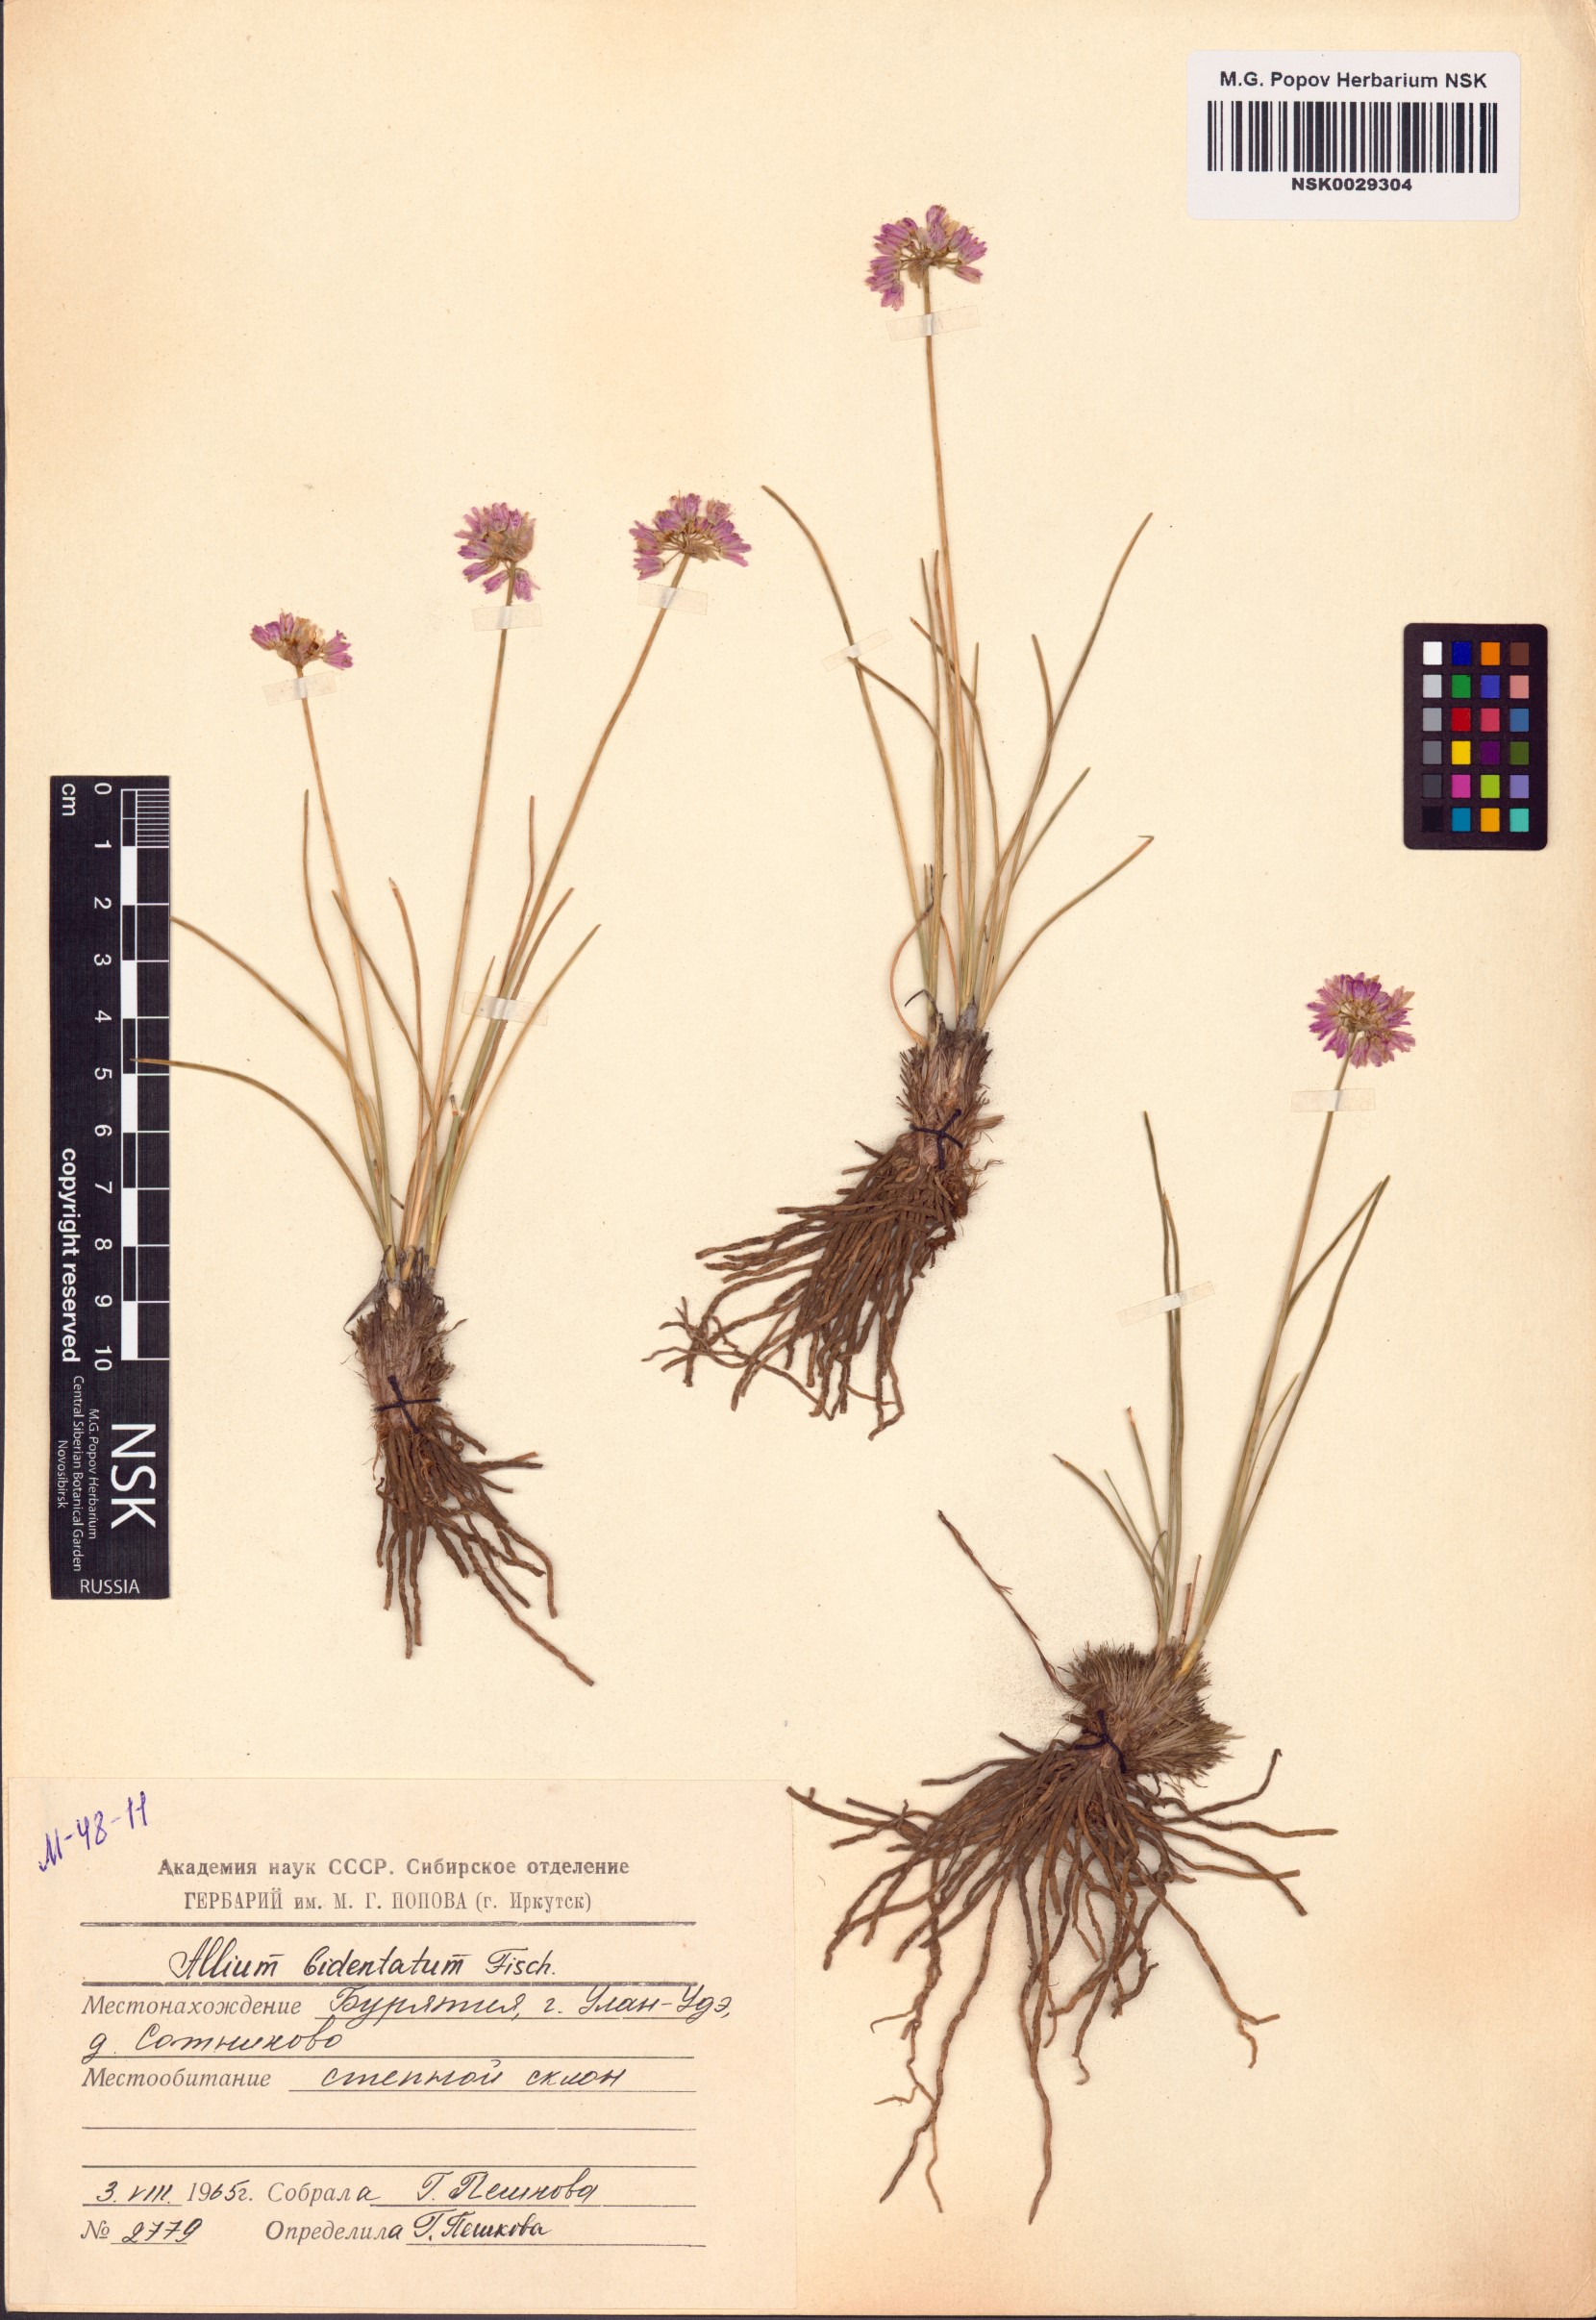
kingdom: Plantae
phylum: Tracheophyta
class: Liliopsida
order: Asparagales
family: Amaryllidaceae
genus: Allium
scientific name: Allium bidentatum
